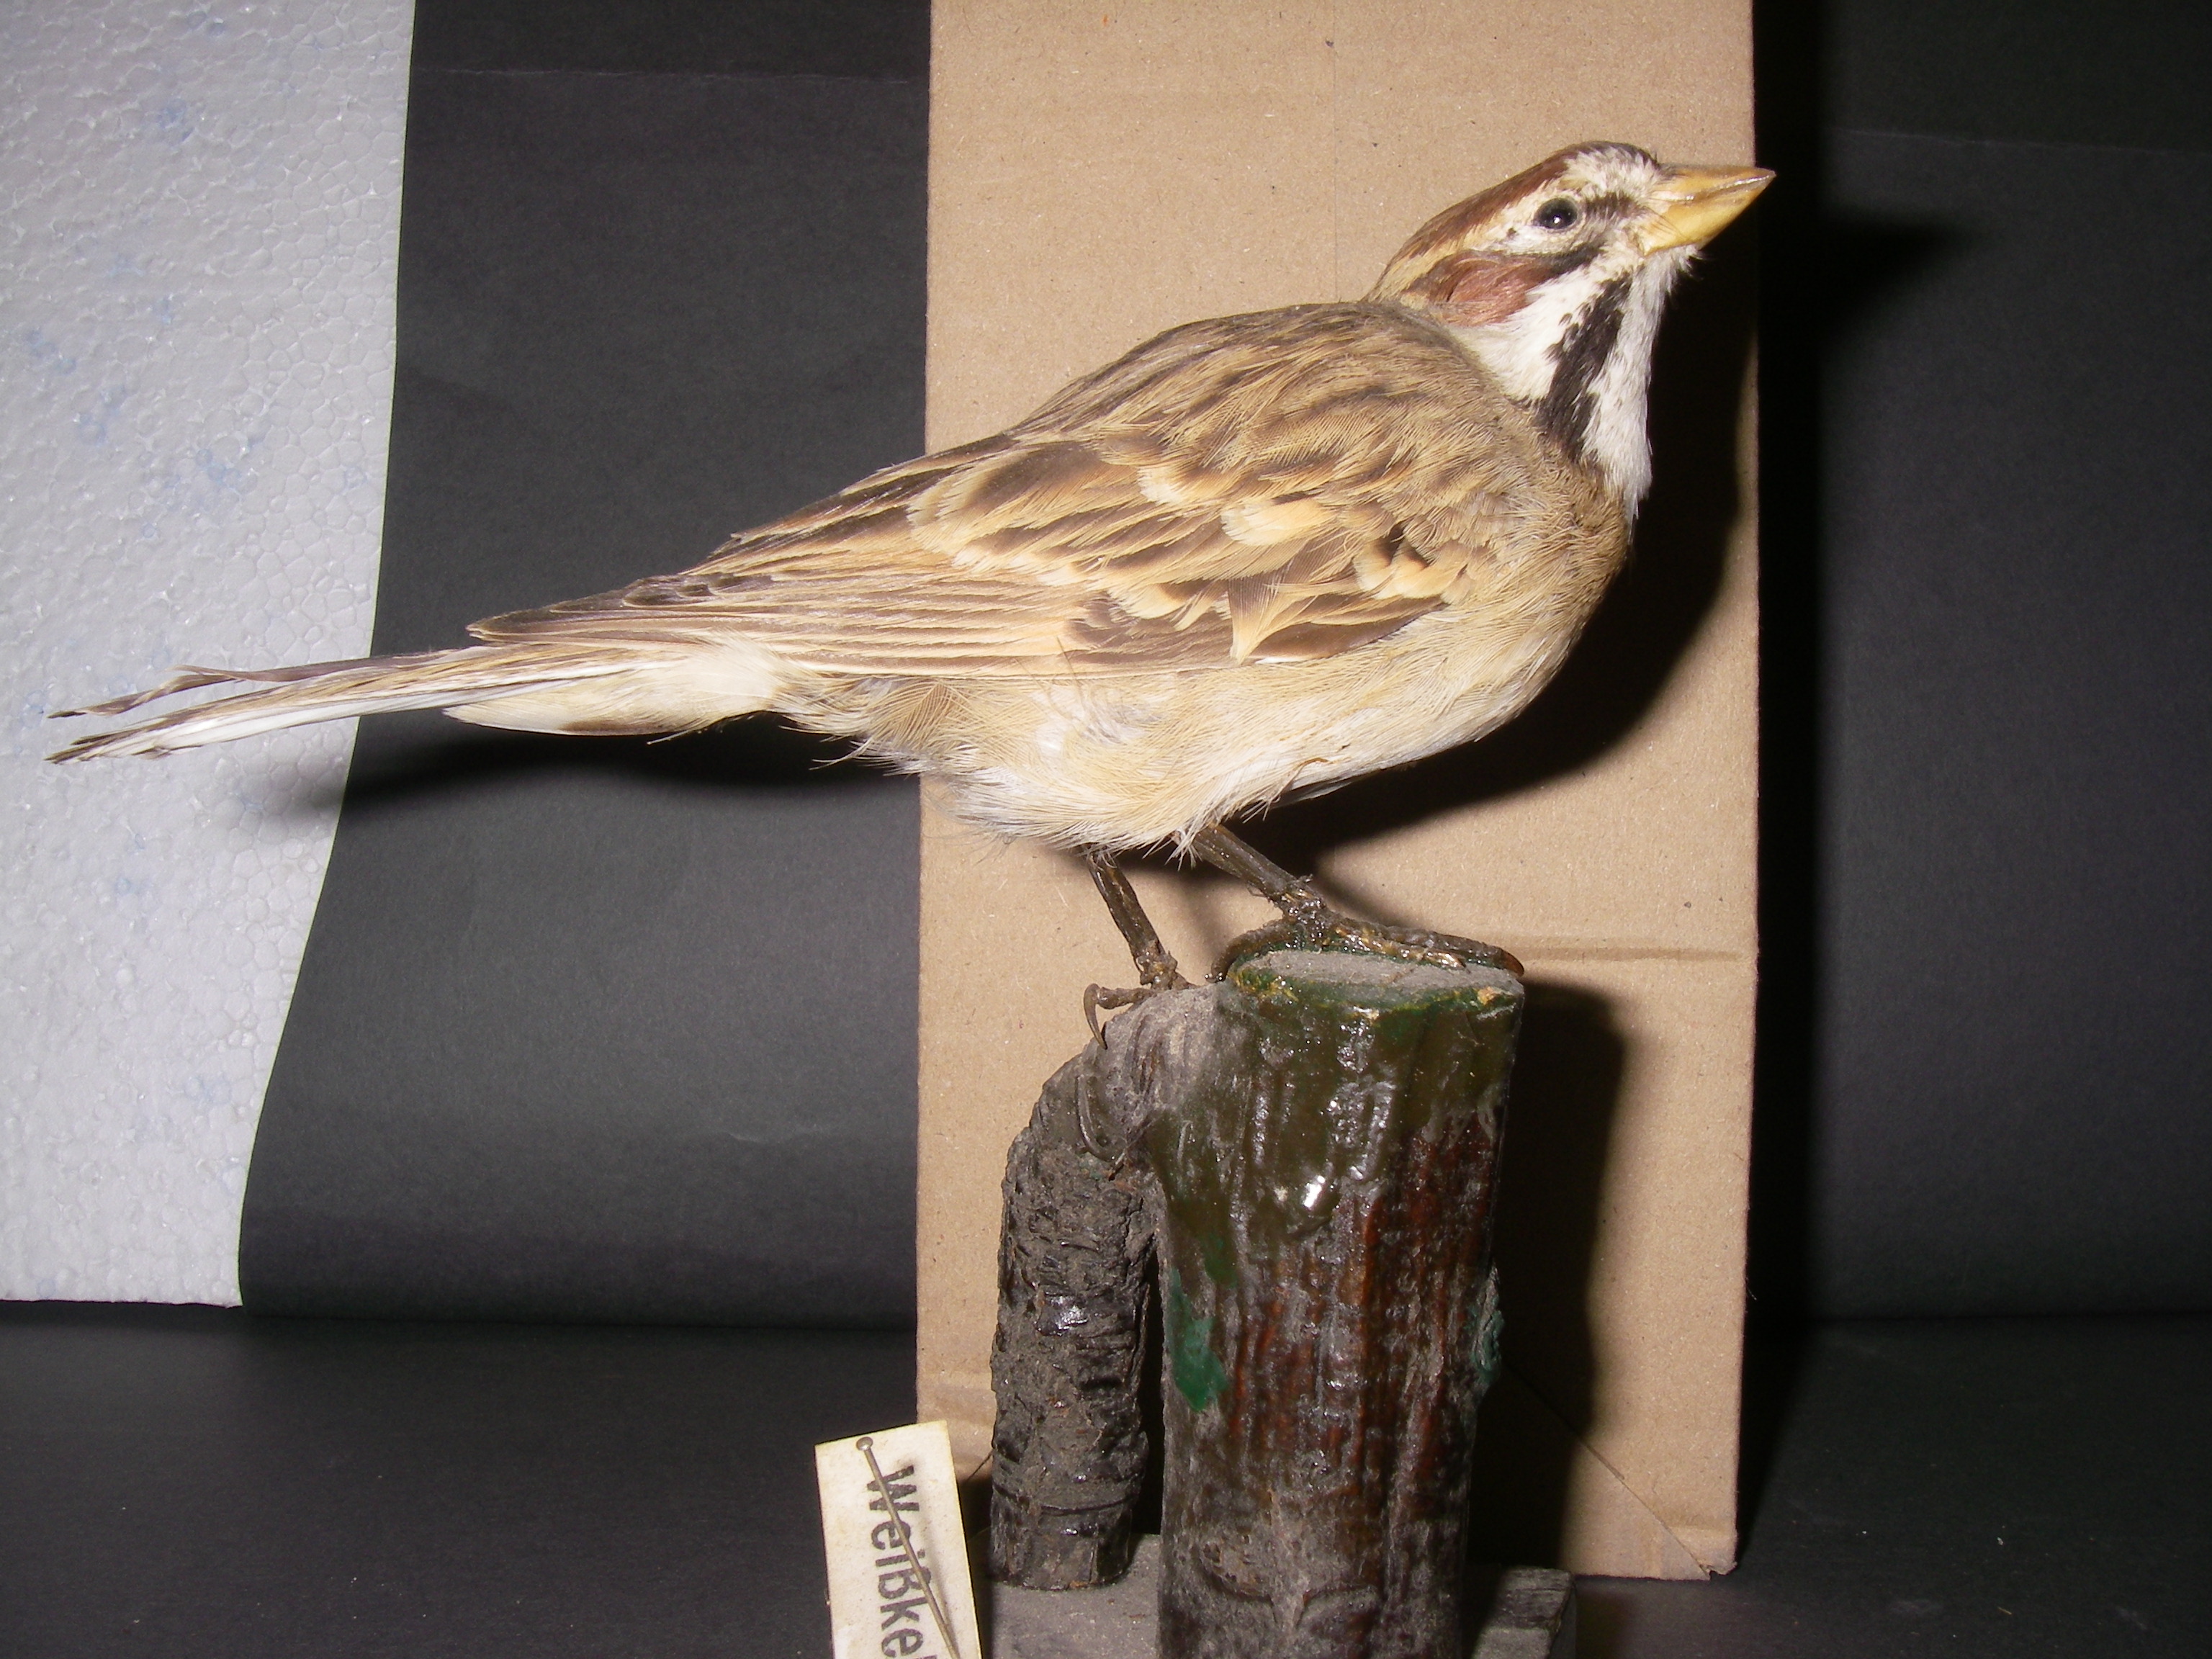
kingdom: Animalia
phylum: Chordata
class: Aves
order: Passeriformes
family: Passerellidae
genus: Zonotrichia
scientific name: Zonotrichia albicollis
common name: White-throated sparrow
